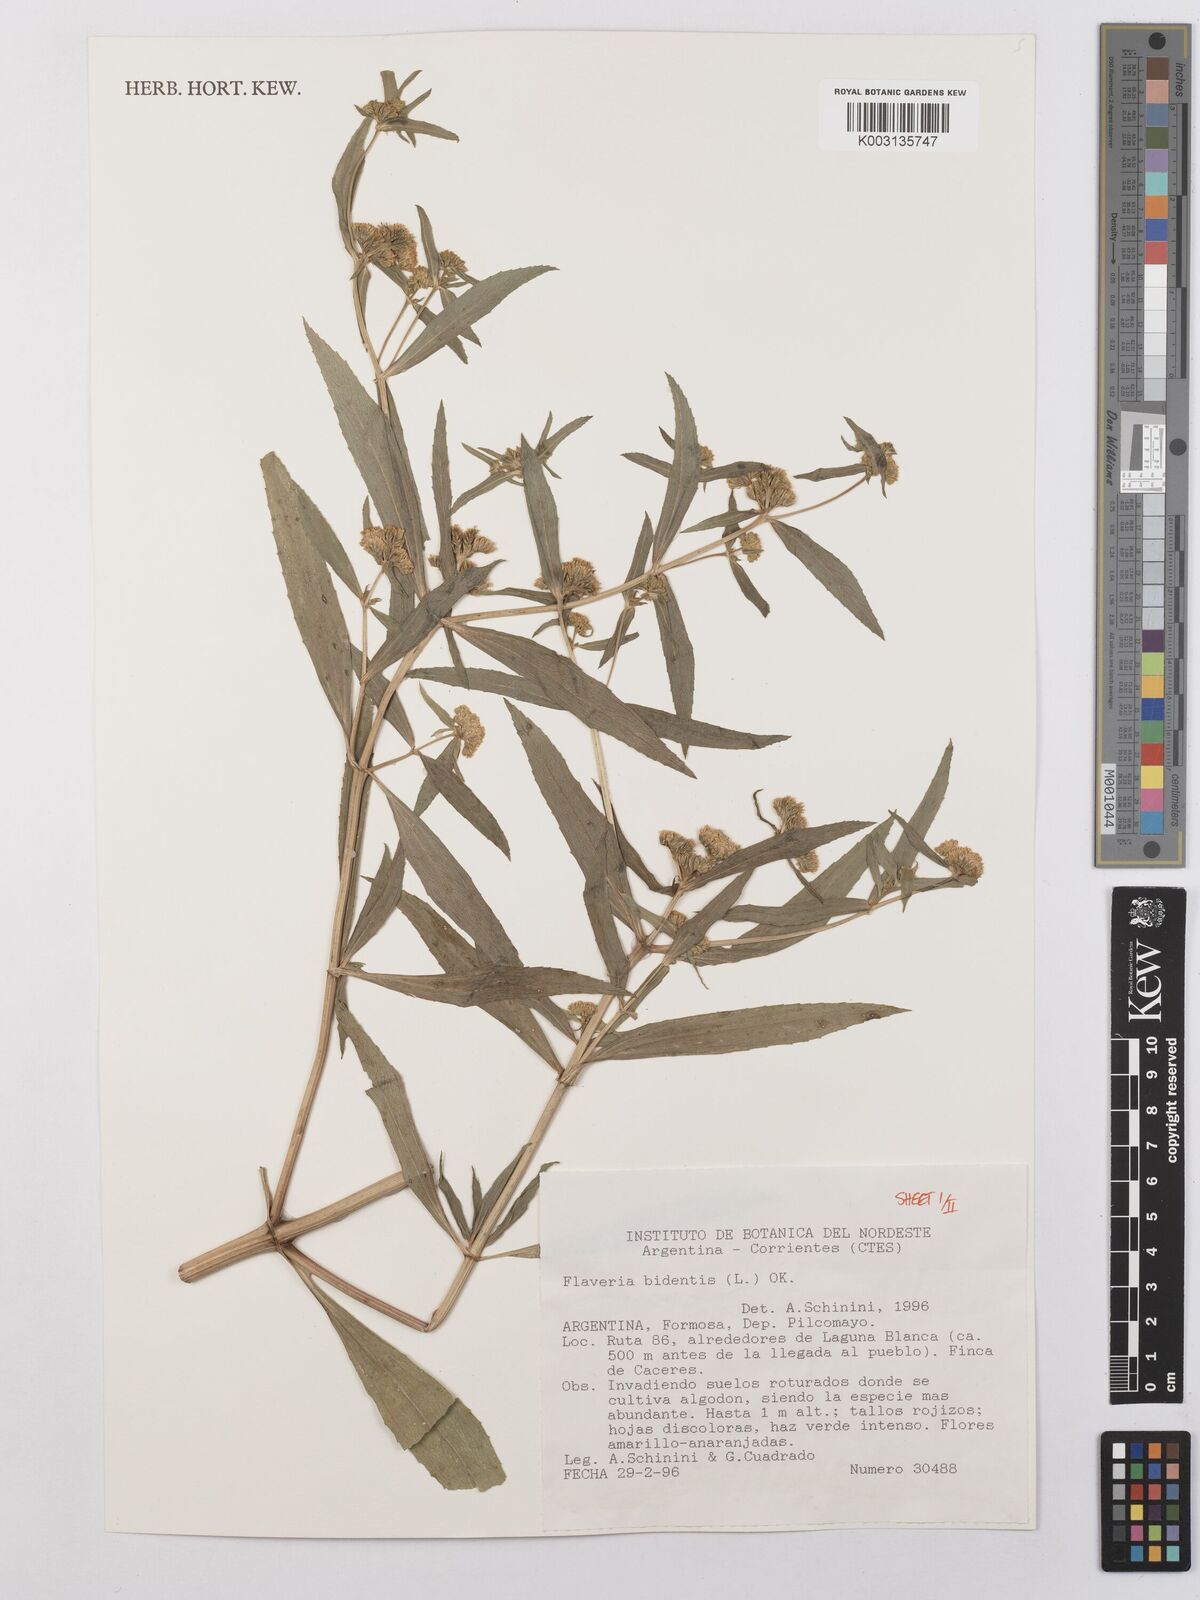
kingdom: Plantae
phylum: Tracheophyta
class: Magnoliopsida
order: Asterales
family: Asteraceae
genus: Flaveria
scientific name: Flaveria bidentis
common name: Coastal plain yellowtops
